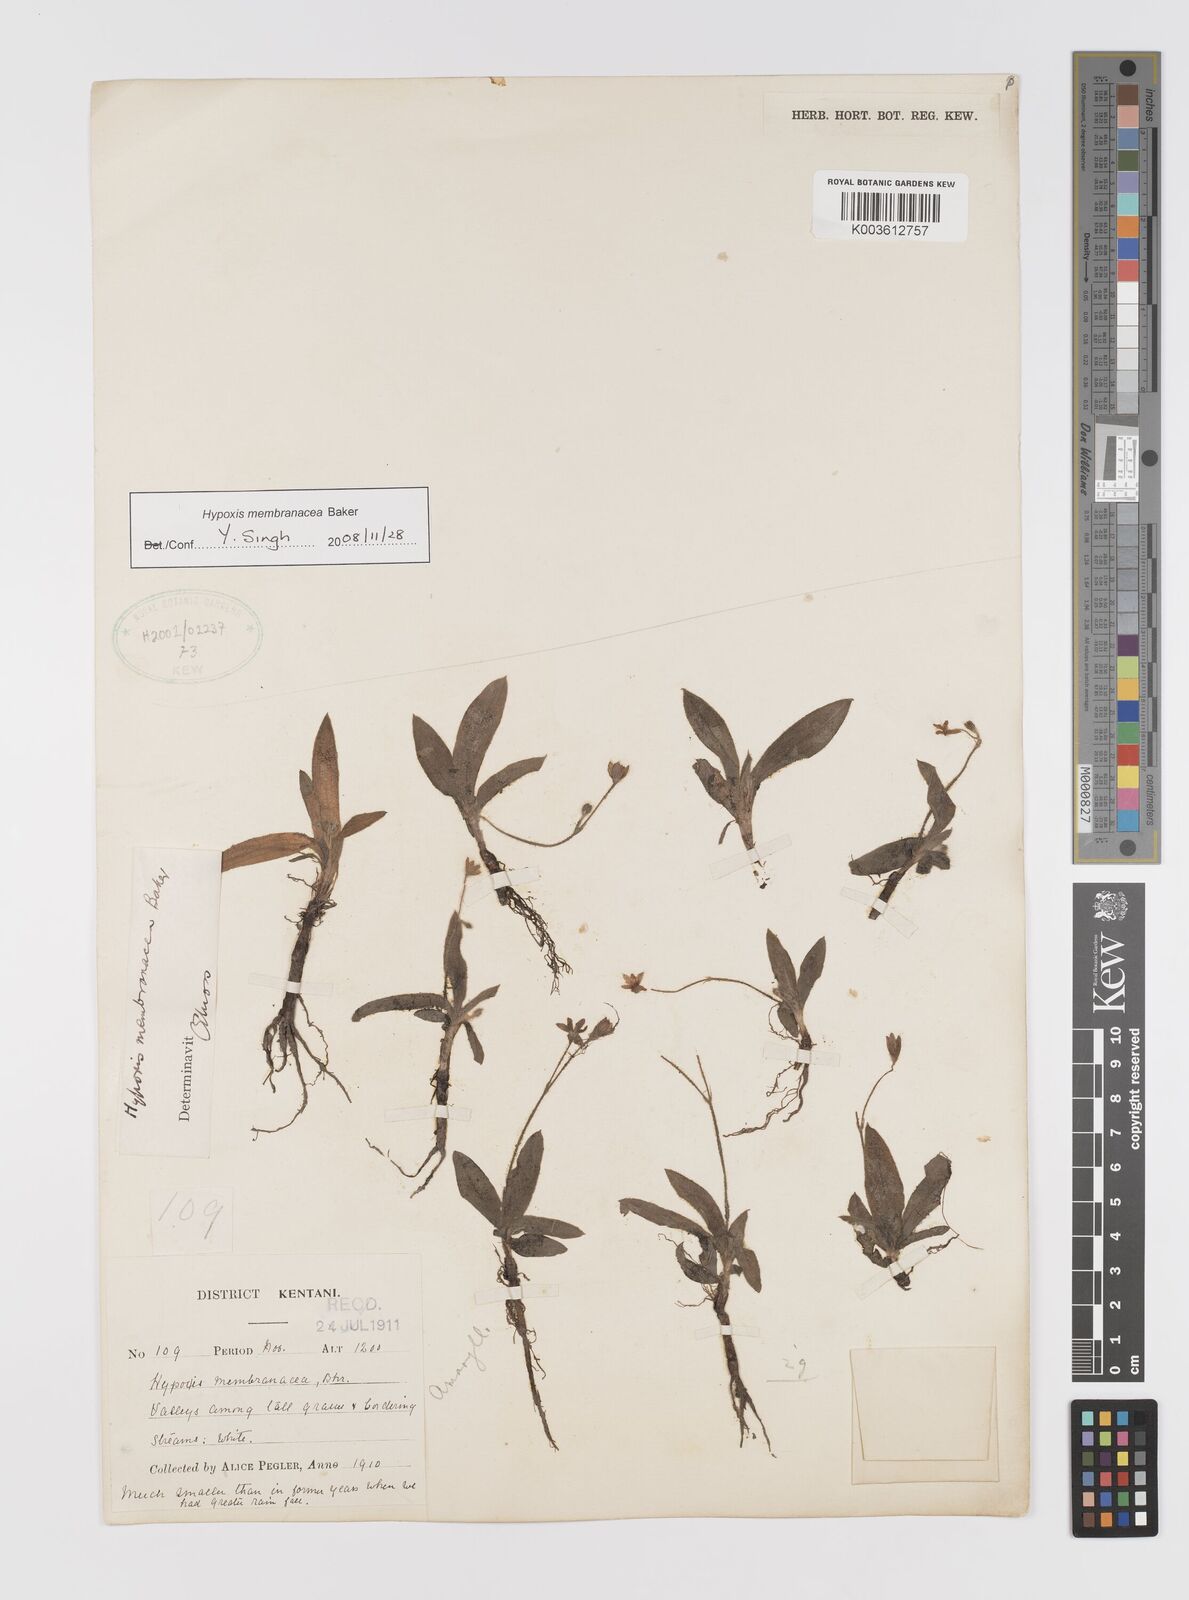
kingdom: Plantae
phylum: Tracheophyta
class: Liliopsida
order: Asparagales
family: Hypoxidaceae
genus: Hypoxis
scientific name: Hypoxis membranacea
